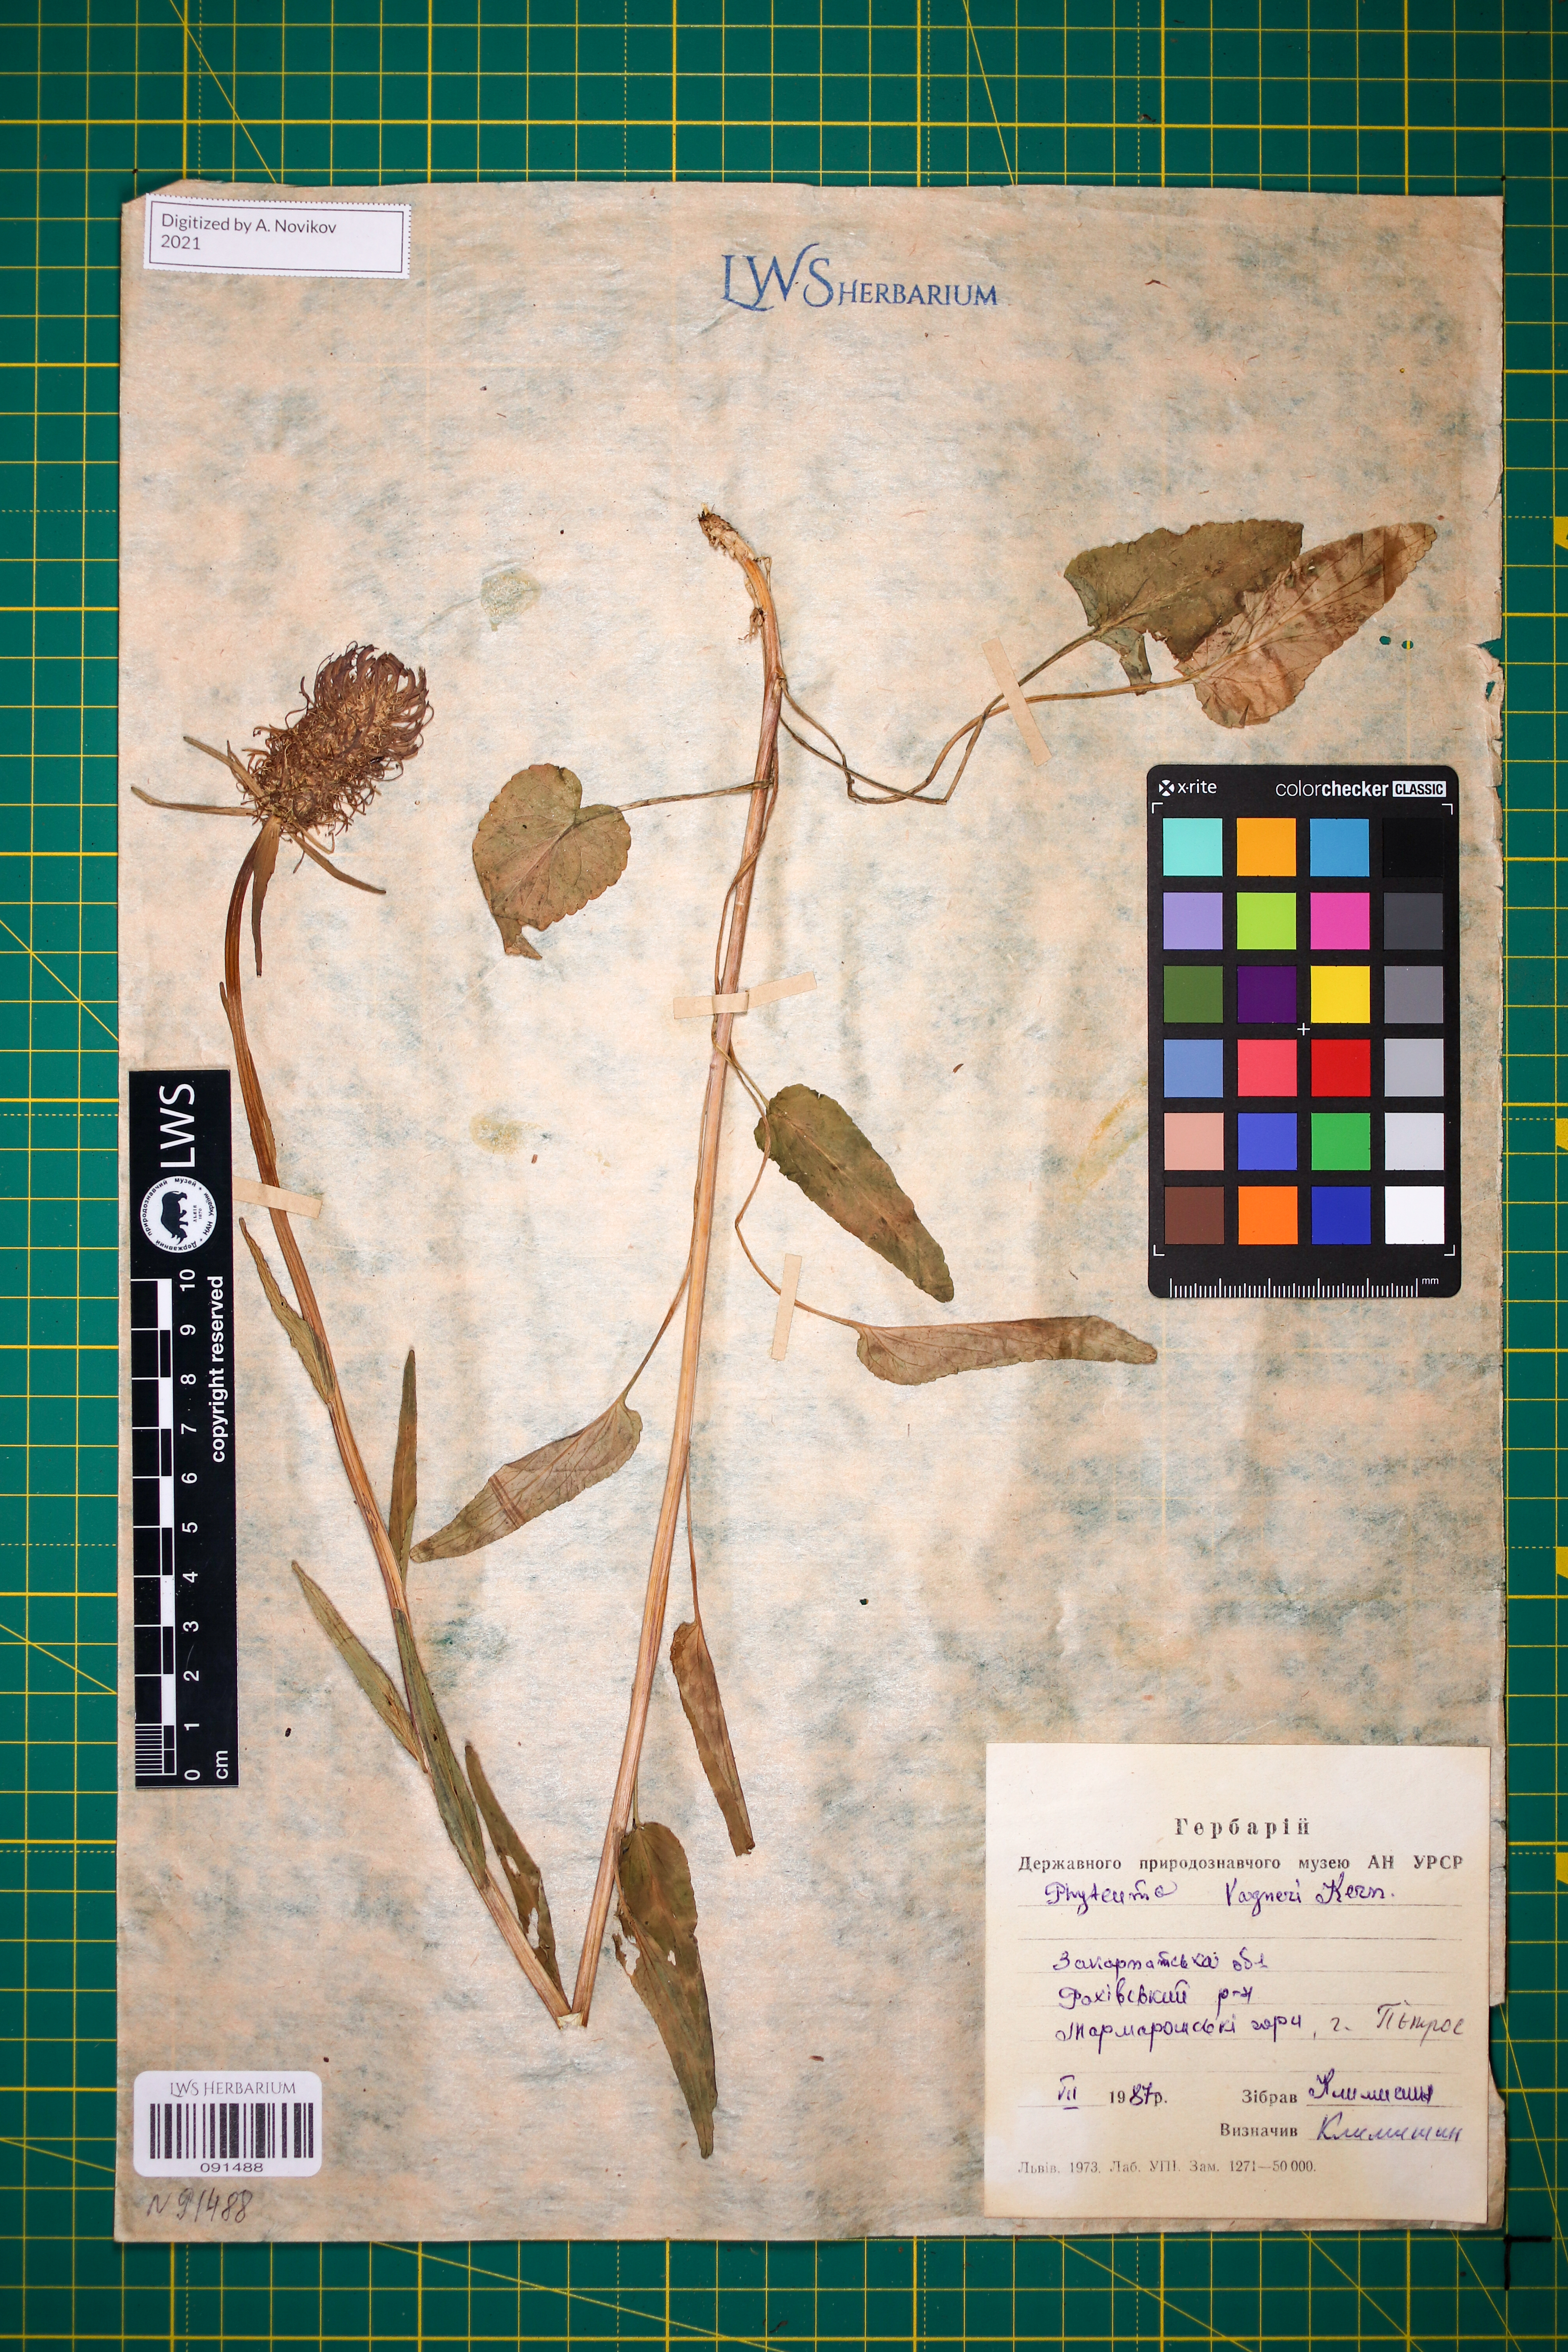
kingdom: Plantae
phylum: Tracheophyta
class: Magnoliopsida
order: Asterales
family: Campanulaceae
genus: Phyteuma
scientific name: Phyteuma vagneri
